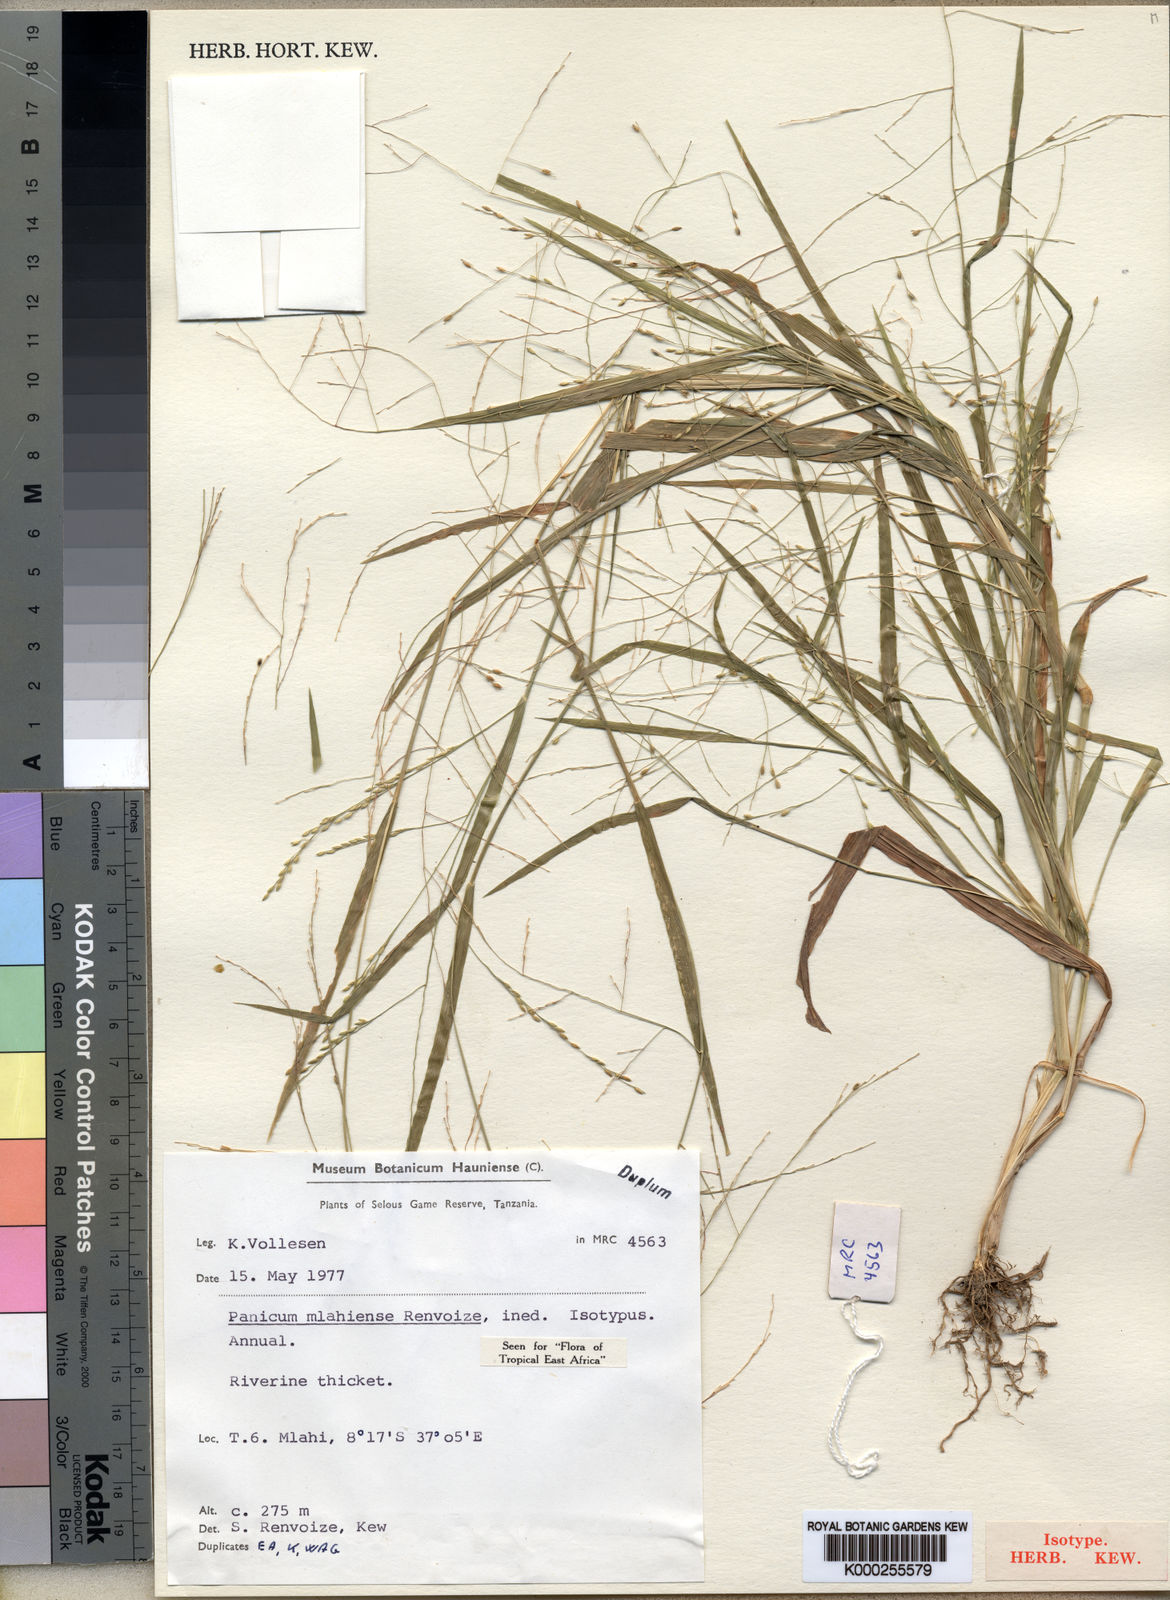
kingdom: Plantae
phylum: Tracheophyta
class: Liliopsida
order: Poales
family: Poaceae
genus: Panicum
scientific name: Panicum mlahiense
